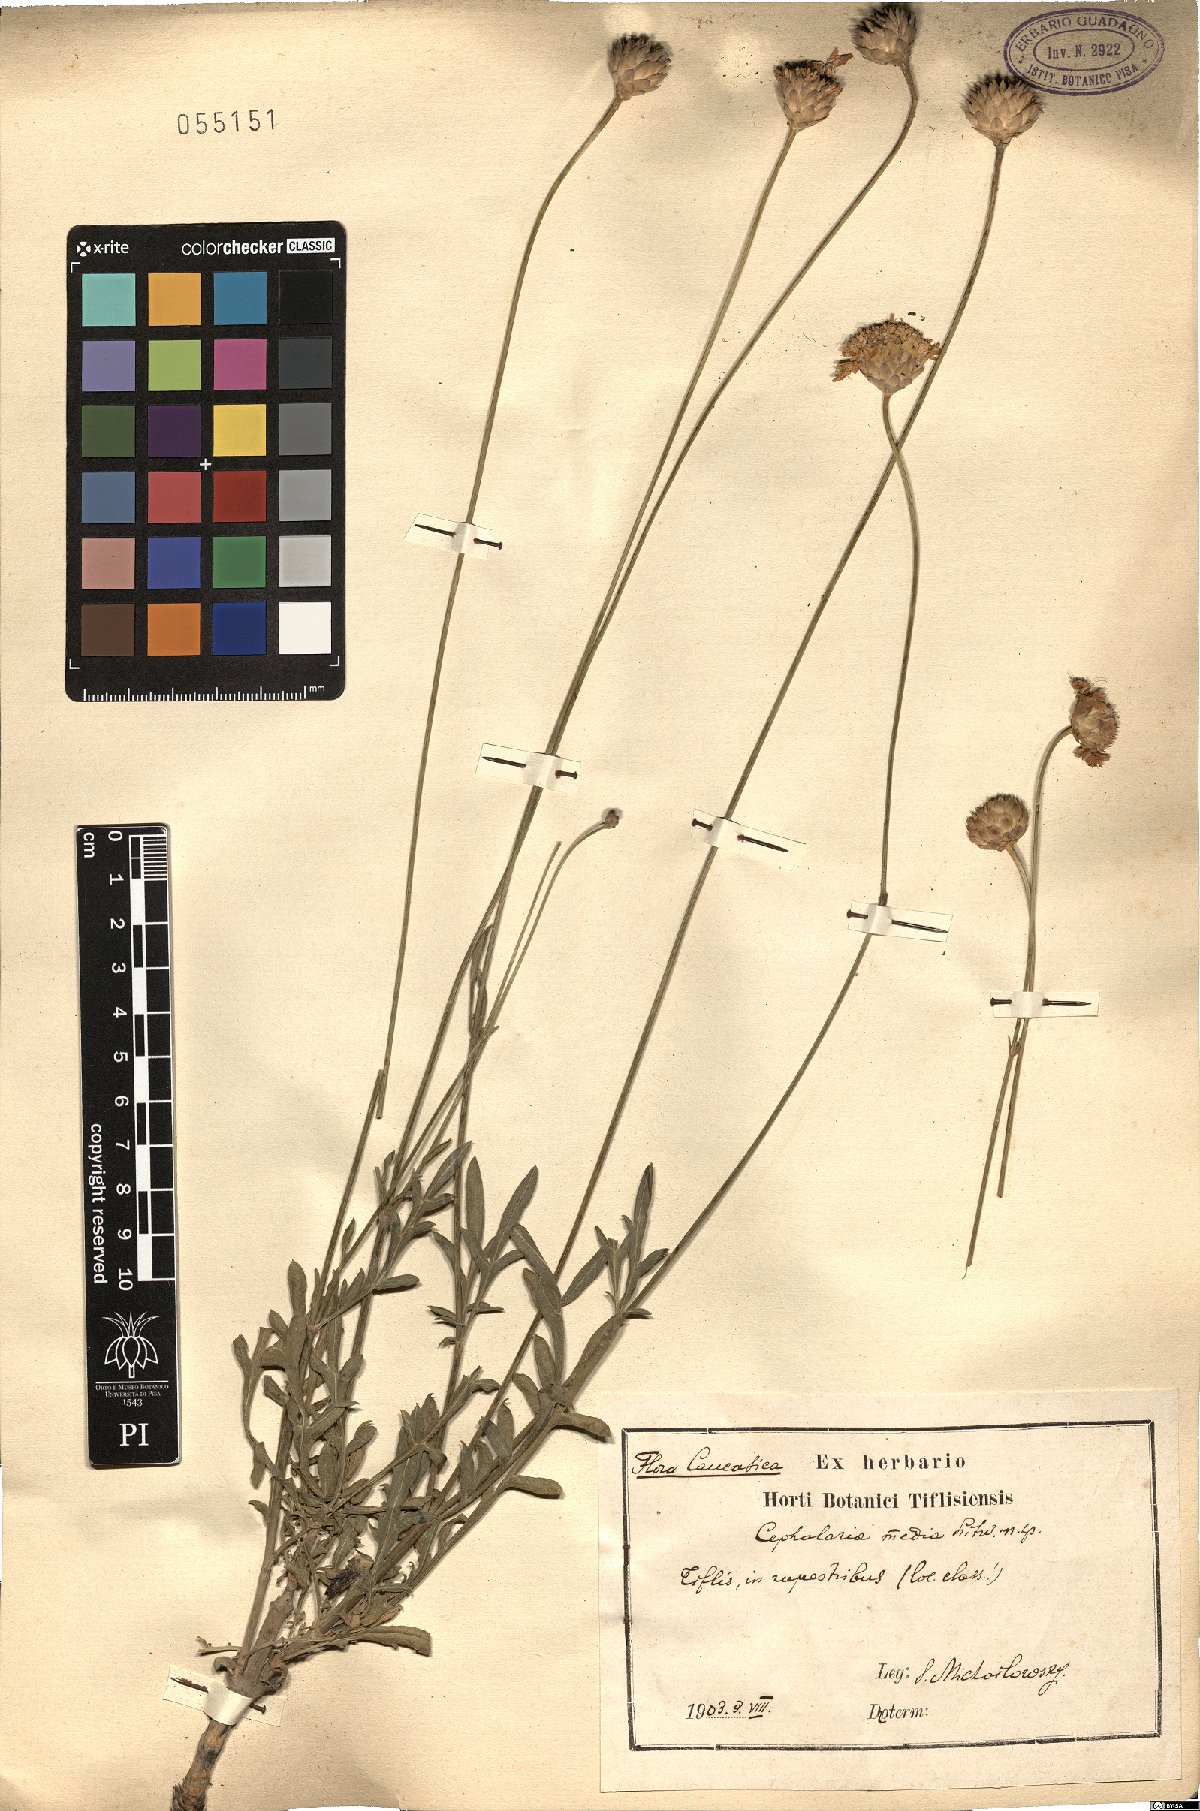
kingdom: Plantae
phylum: Tracheophyta
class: Magnoliopsida
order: Dipsacales
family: Caprifoliaceae
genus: Cephalaria
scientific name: Cephalaria media
